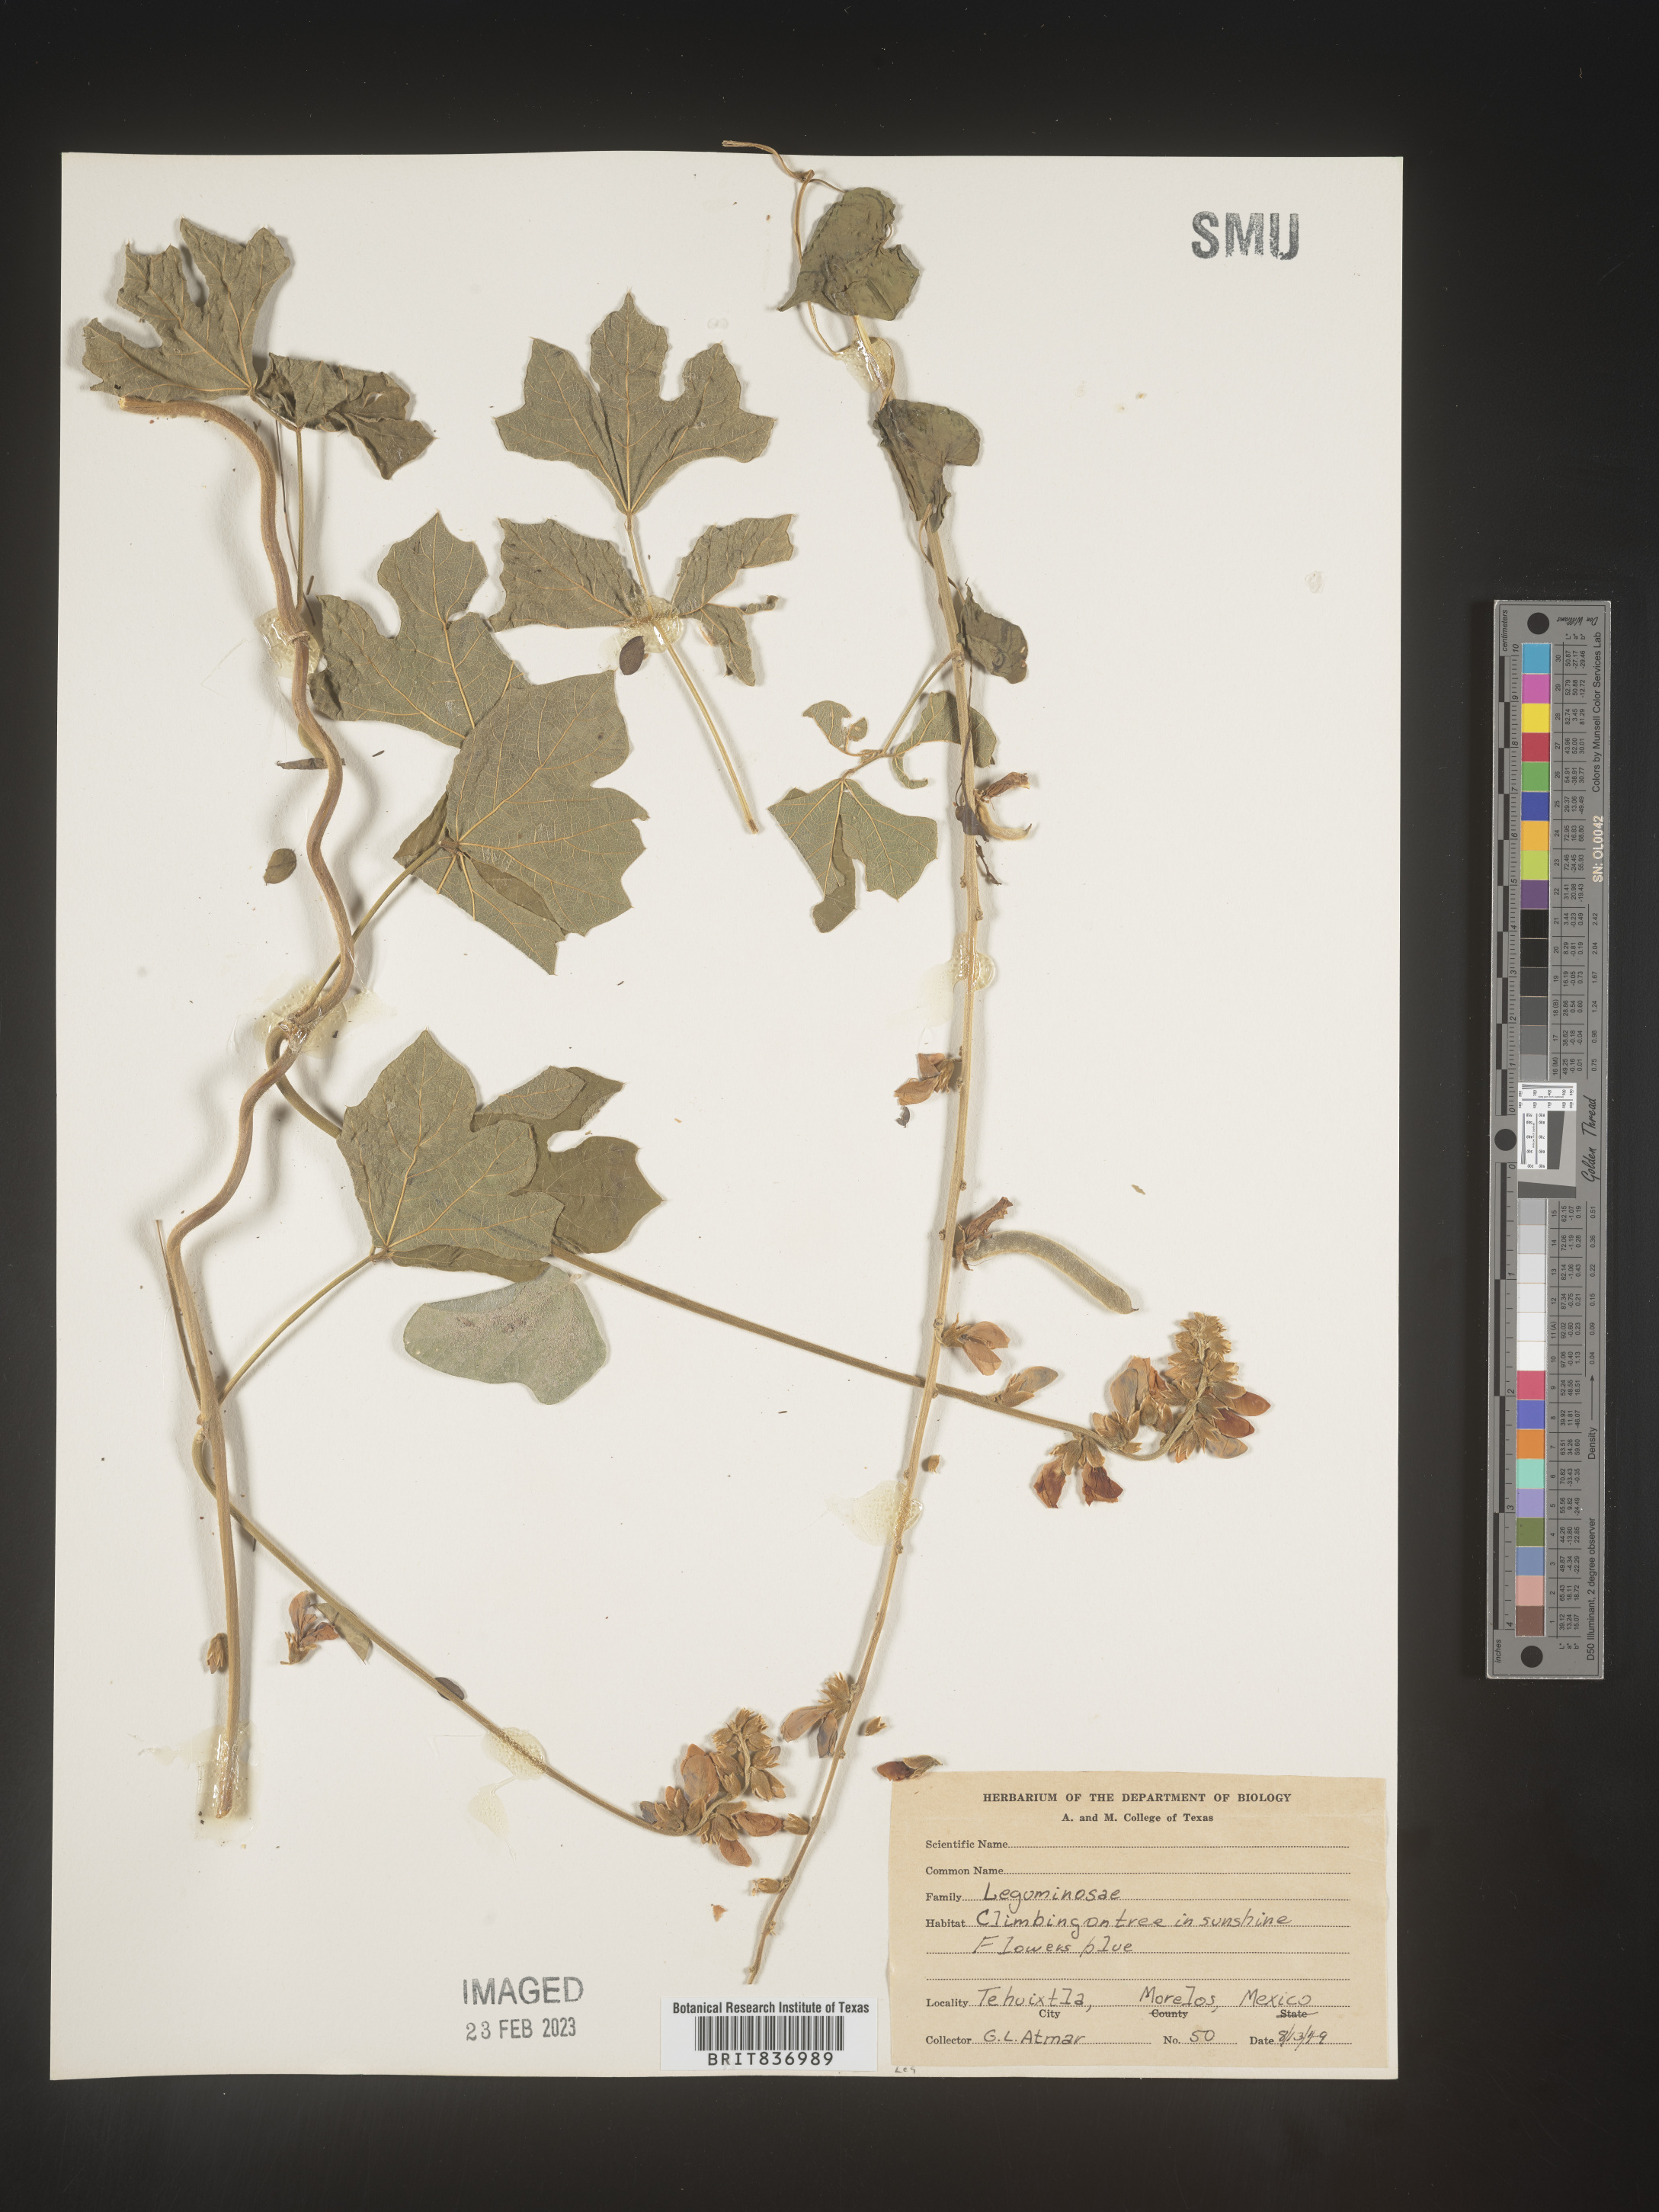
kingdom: Plantae
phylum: Tracheophyta
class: Magnoliopsida
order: Fabales
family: Fabaceae
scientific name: Fabaceae
